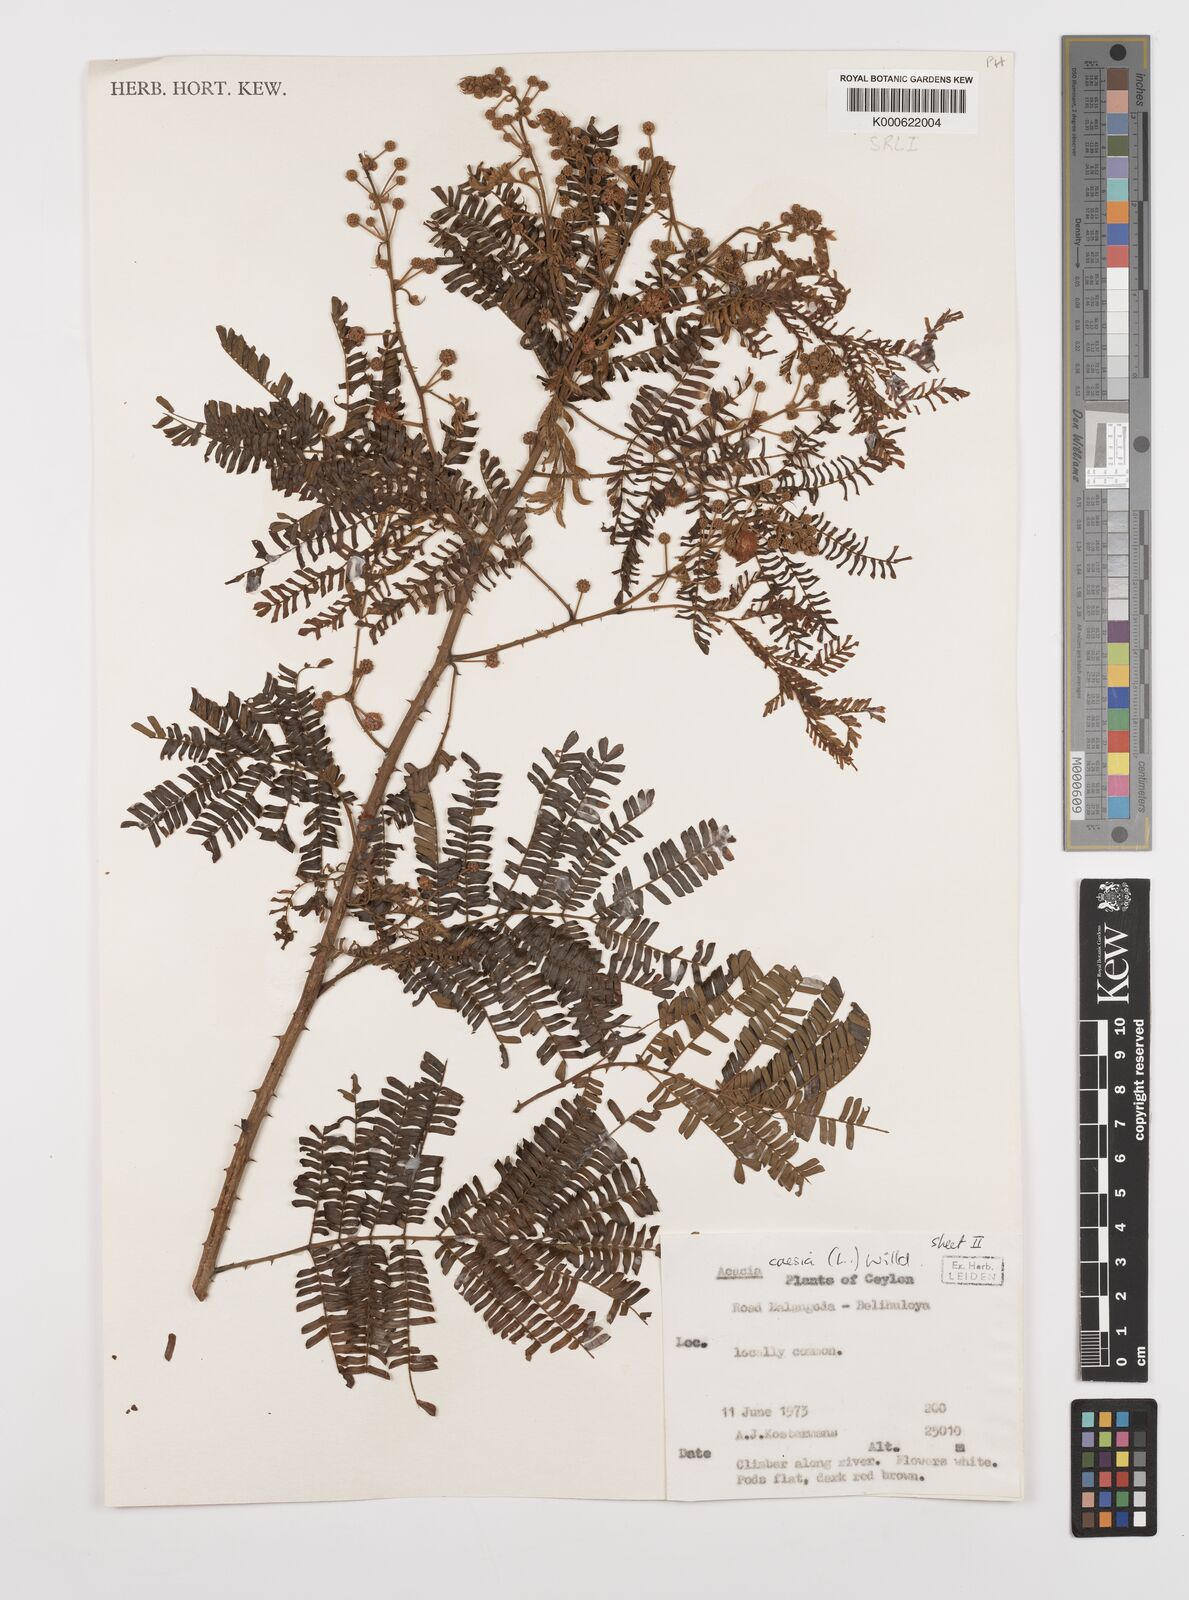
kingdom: Plantae
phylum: Tracheophyta
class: Magnoliopsida
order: Fabales
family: Fabaceae
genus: Senegalia
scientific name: Senegalia caesia
